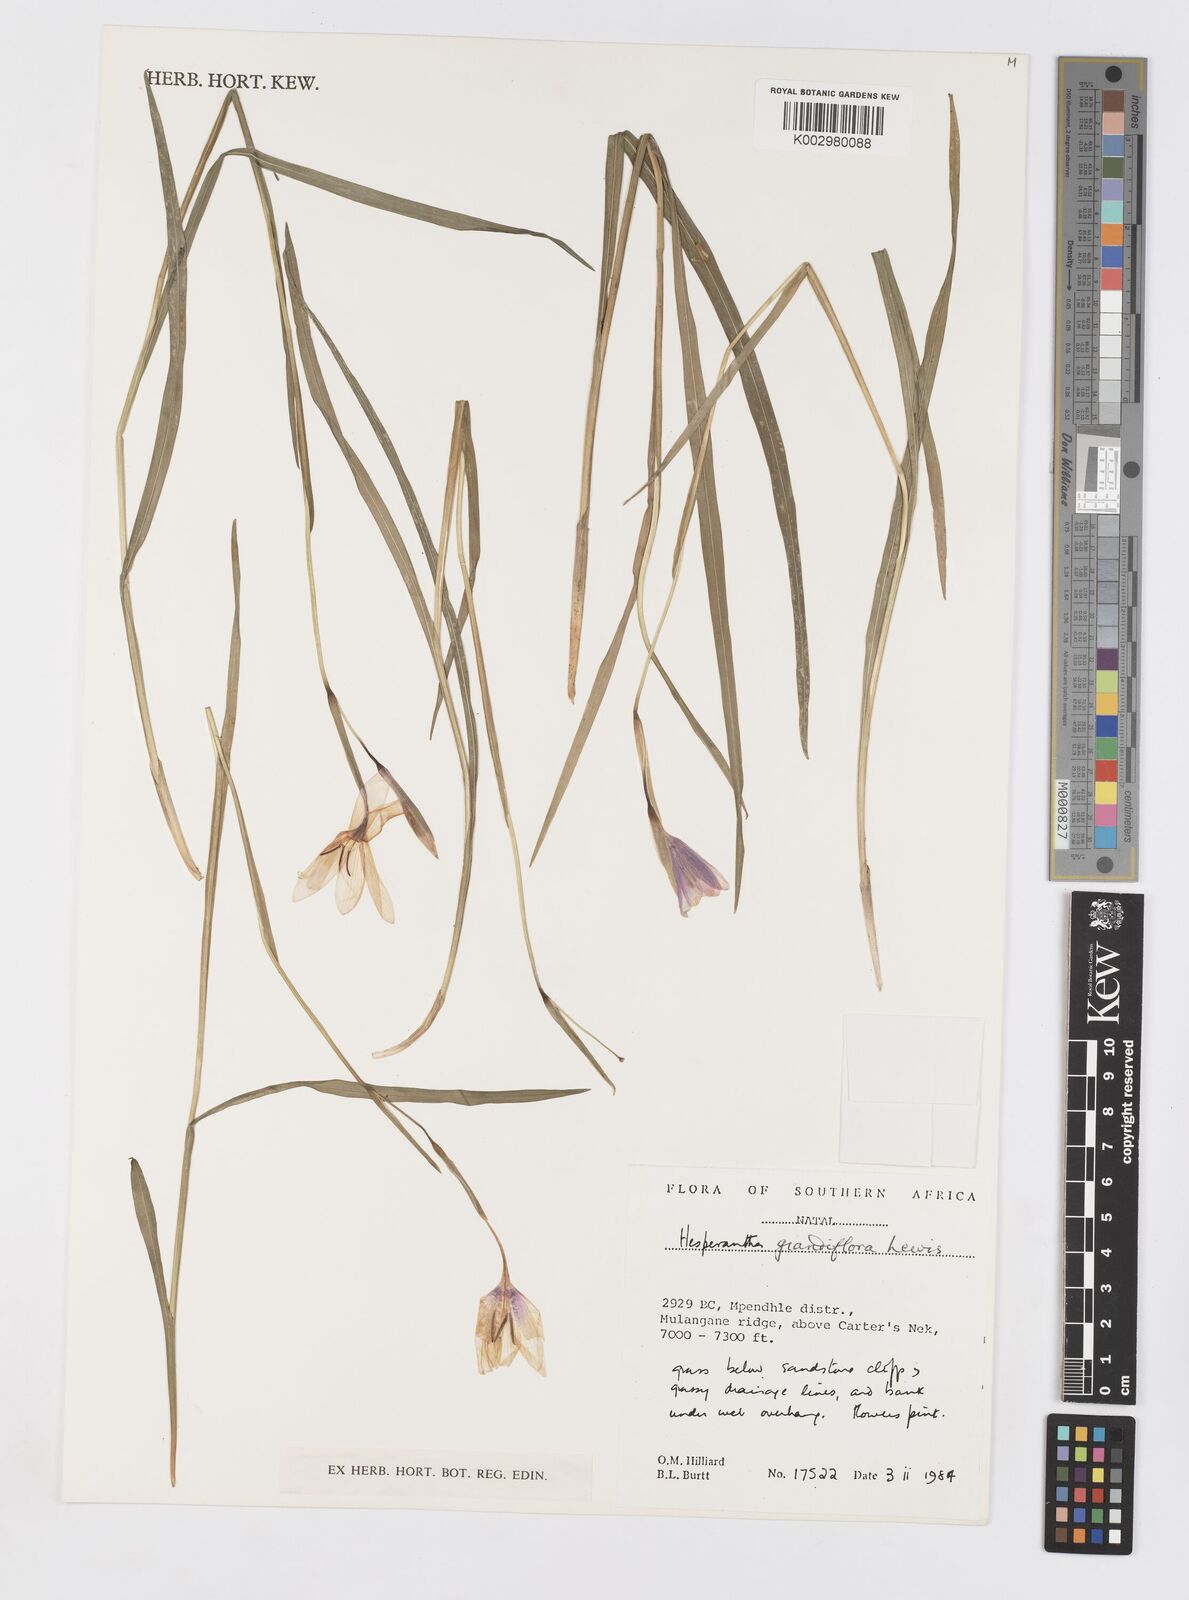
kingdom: Plantae
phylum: Tracheophyta
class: Liliopsida
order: Asparagales
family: Iridaceae
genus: Hesperantha
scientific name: Hesperantha grandiflora
